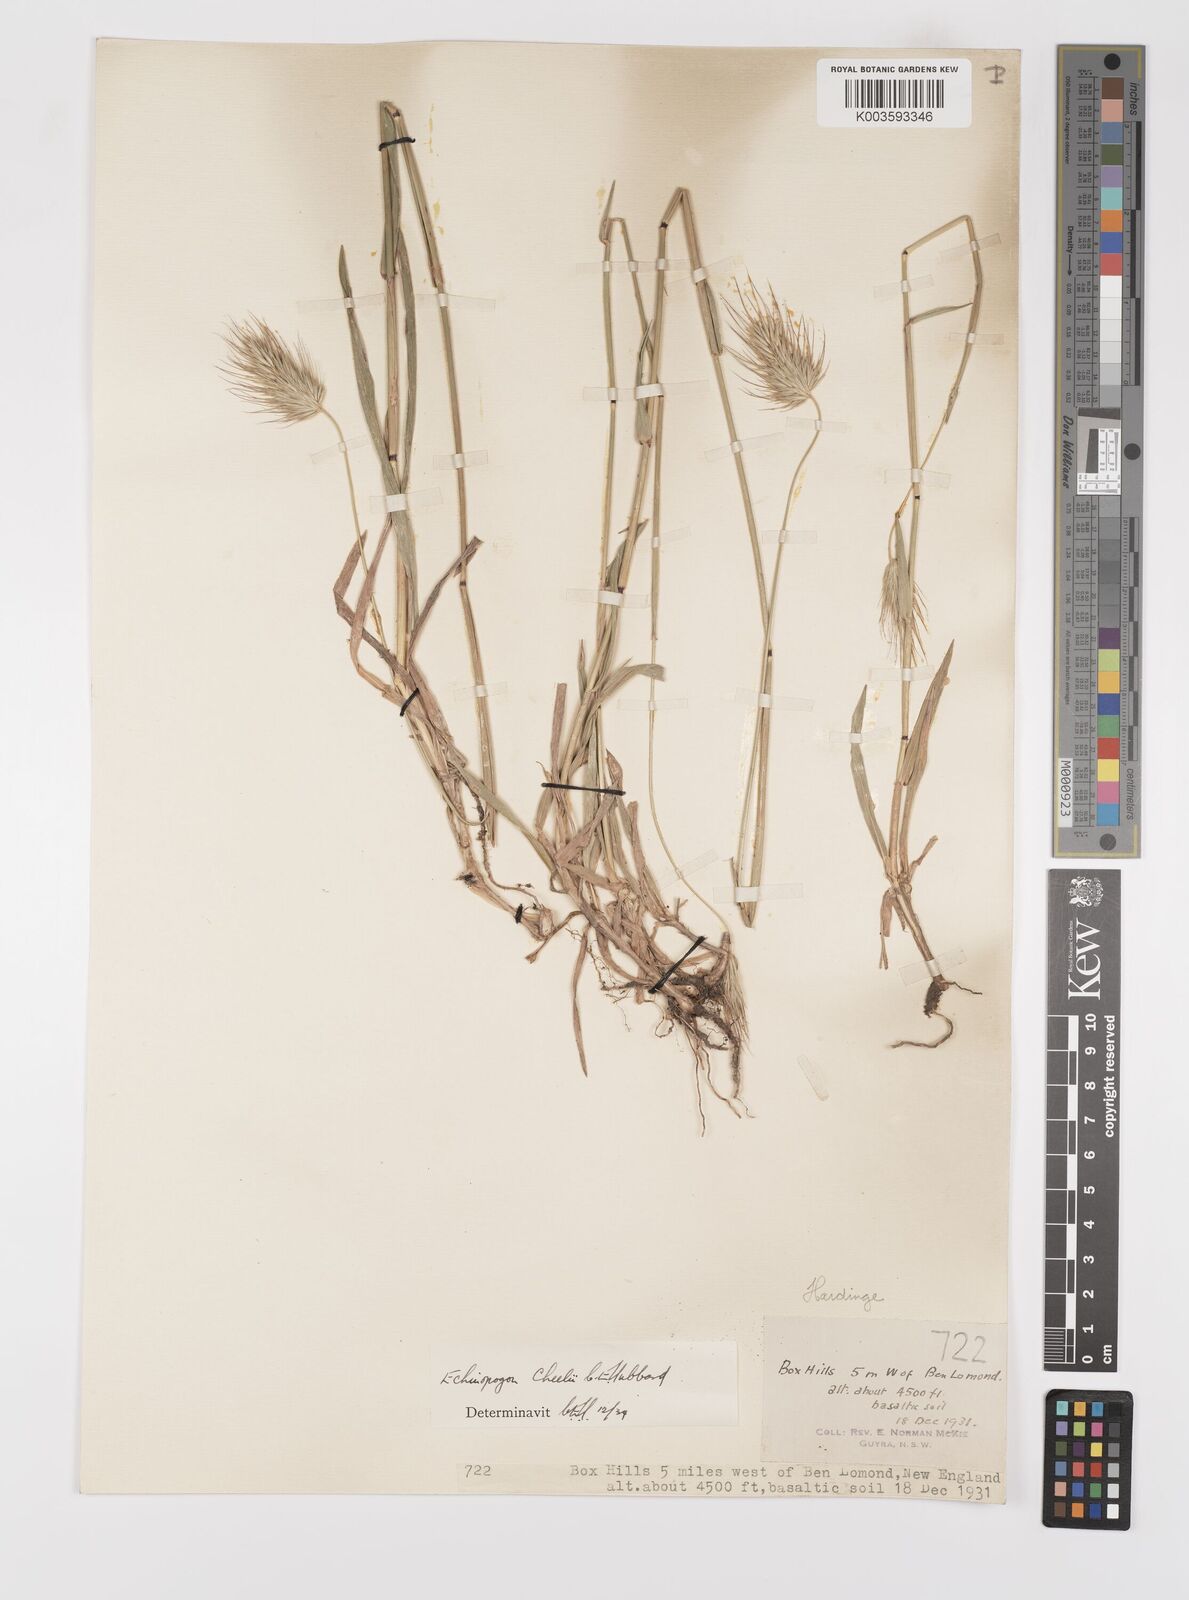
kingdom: Plantae
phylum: Tracheophyta
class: Liliopsida
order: Poales
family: Poaceae
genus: Echinopogon
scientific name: Echinopogon cheelii
